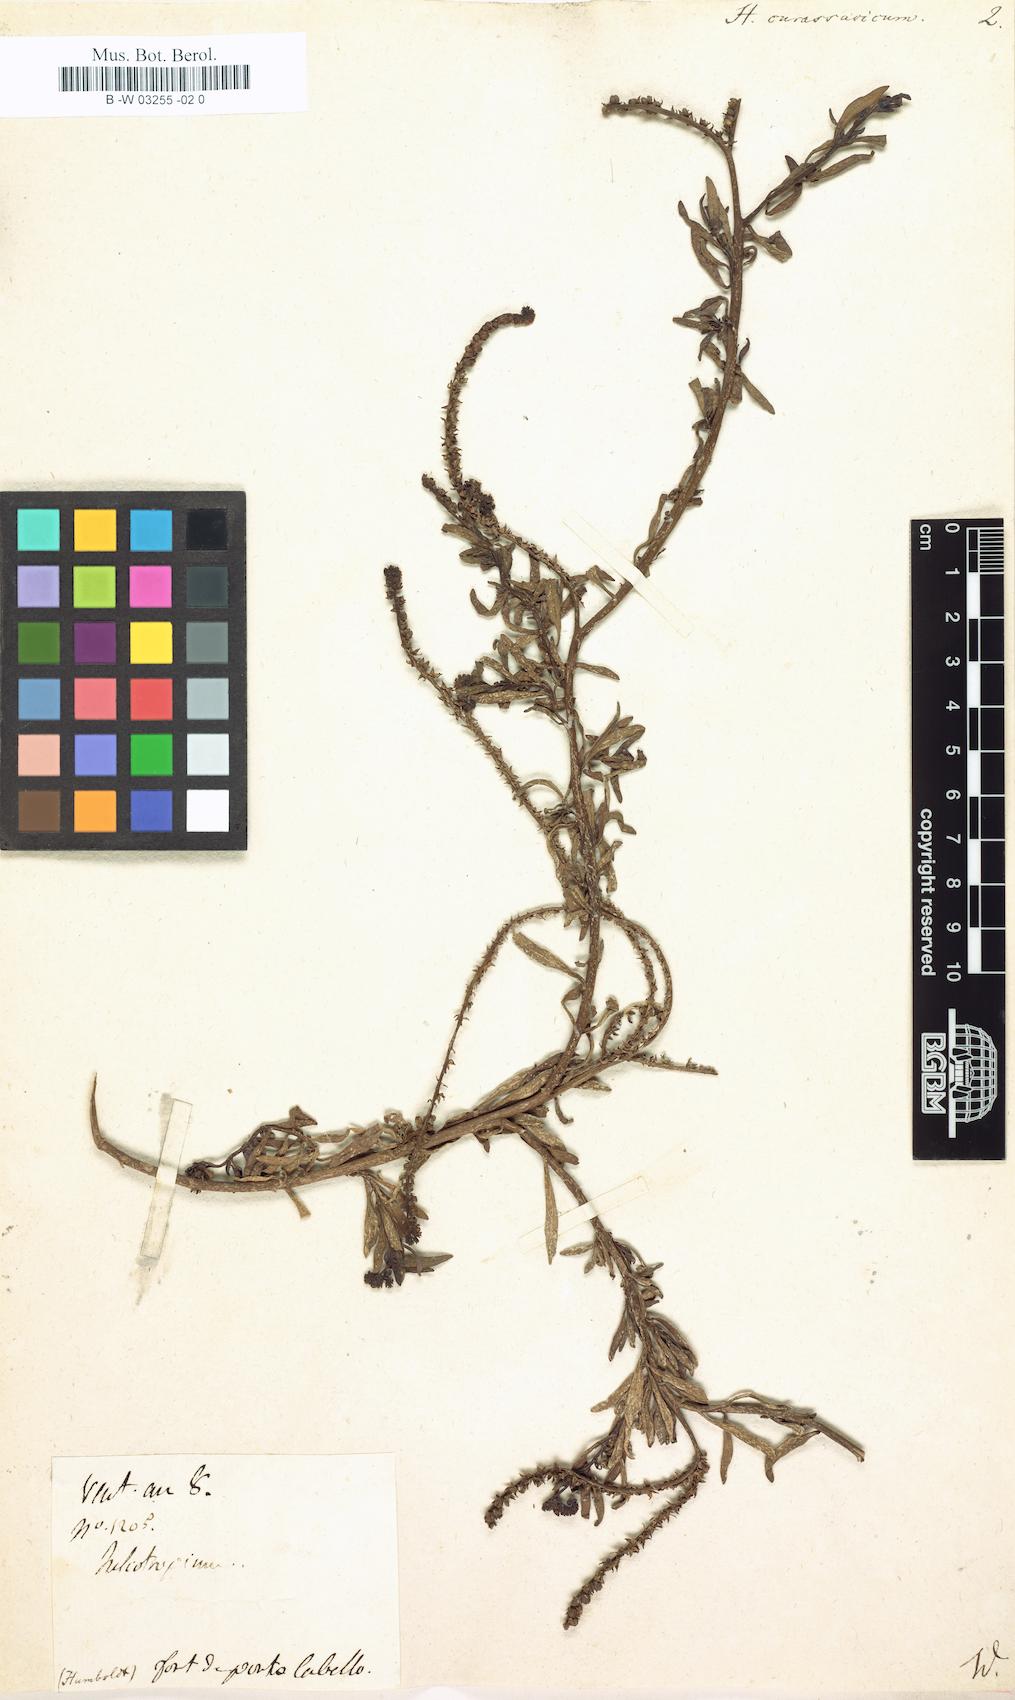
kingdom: Plantae
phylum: Tracheophyta
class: Magnoliopsida
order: Boraginales
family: Heliotropiaceae
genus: Heliotropium
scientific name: Heliotropium curassavicum
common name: Seaside heliotrope
